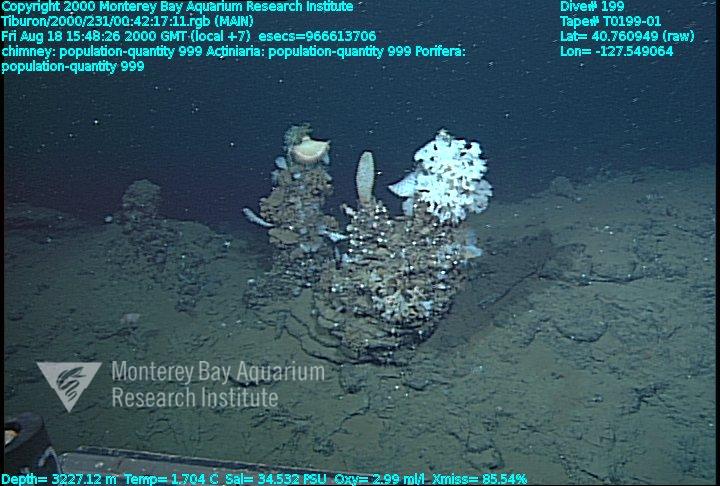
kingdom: Animalia
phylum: Porifera
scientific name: Porifera
